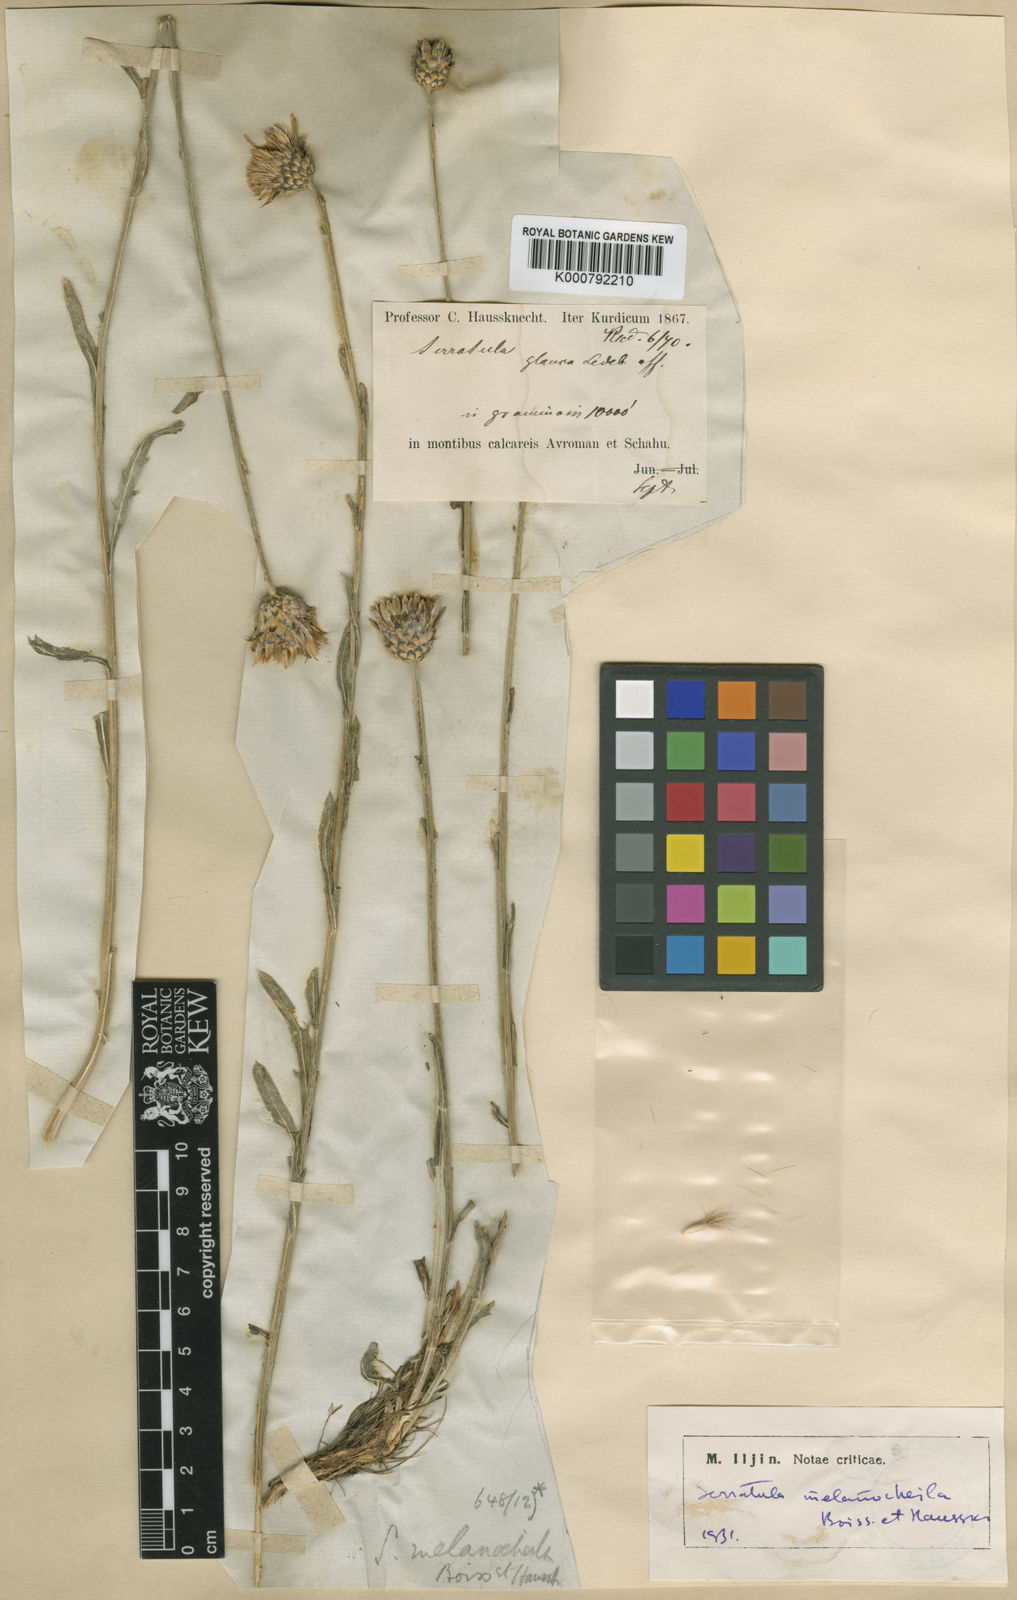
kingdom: Plantae
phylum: Tracheophyta
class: Magnoliopsida
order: Asterales
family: Asteraceae
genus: Klasea
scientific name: Klasea melanocheila
